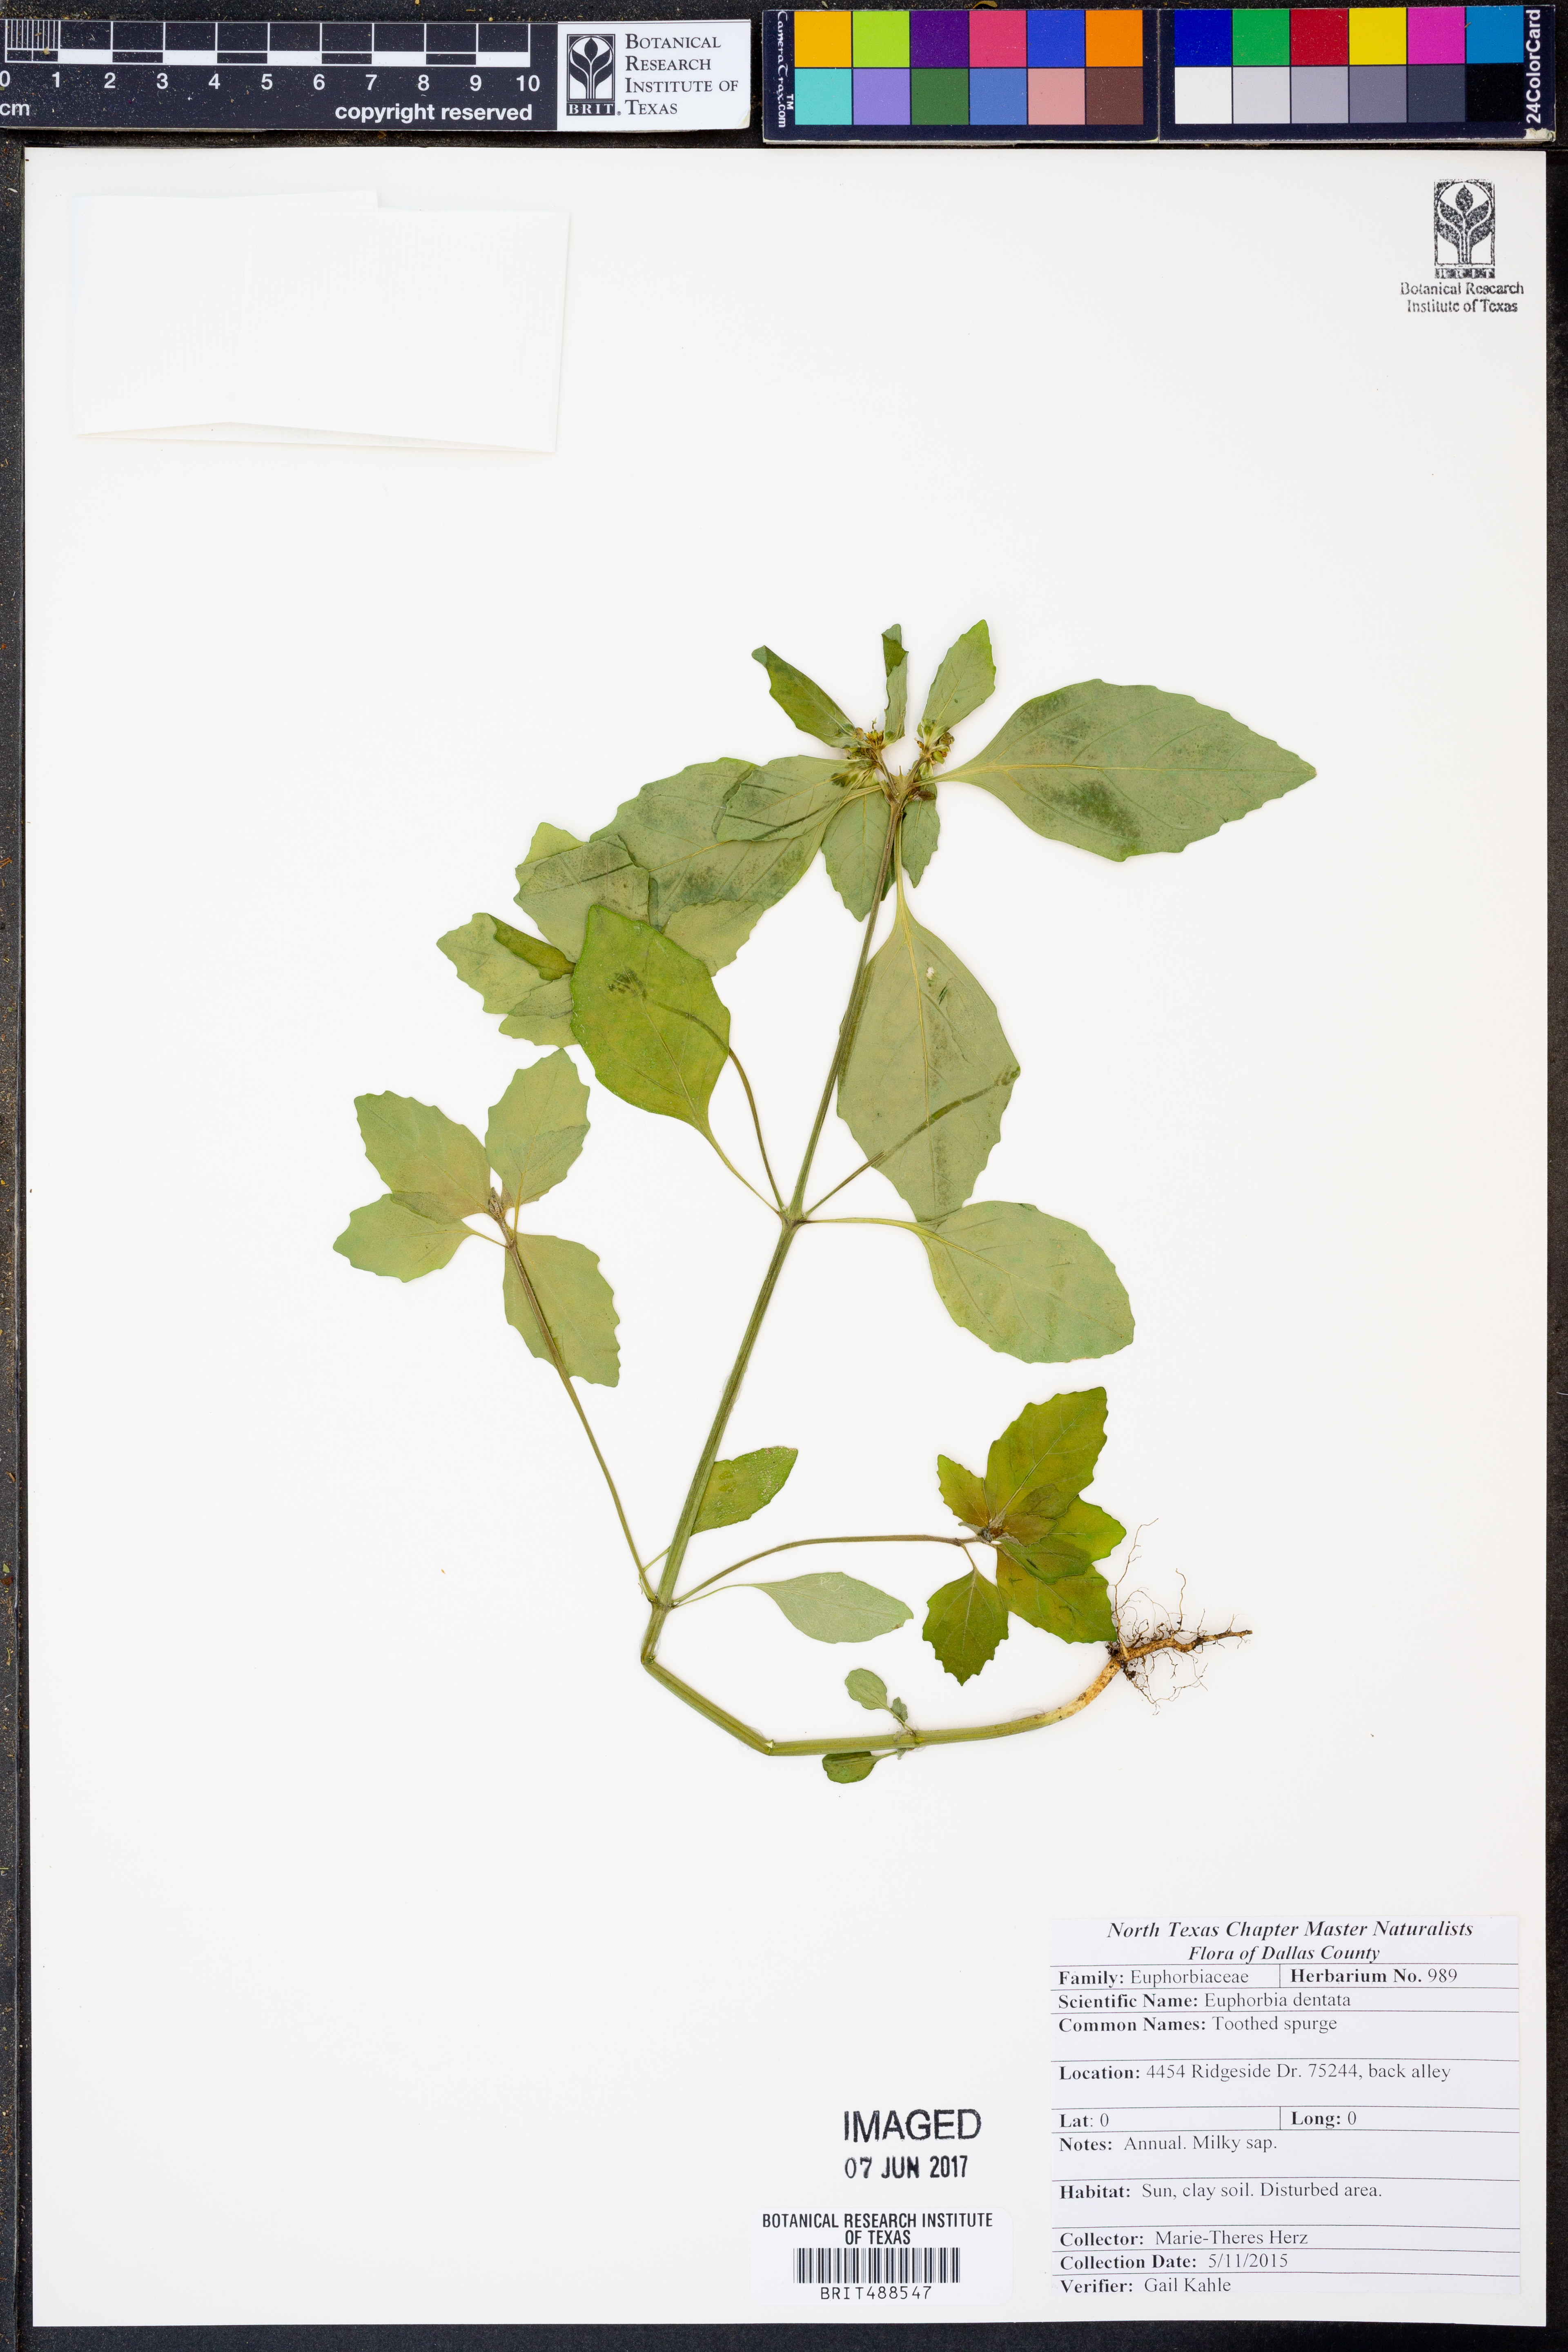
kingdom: Plantae
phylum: Tracheophyta
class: Magnoliopsida
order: Malpighiales
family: Euphorbiaceae
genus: Euphorbia
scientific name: Euphorbia dentata
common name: Dentate spurge
